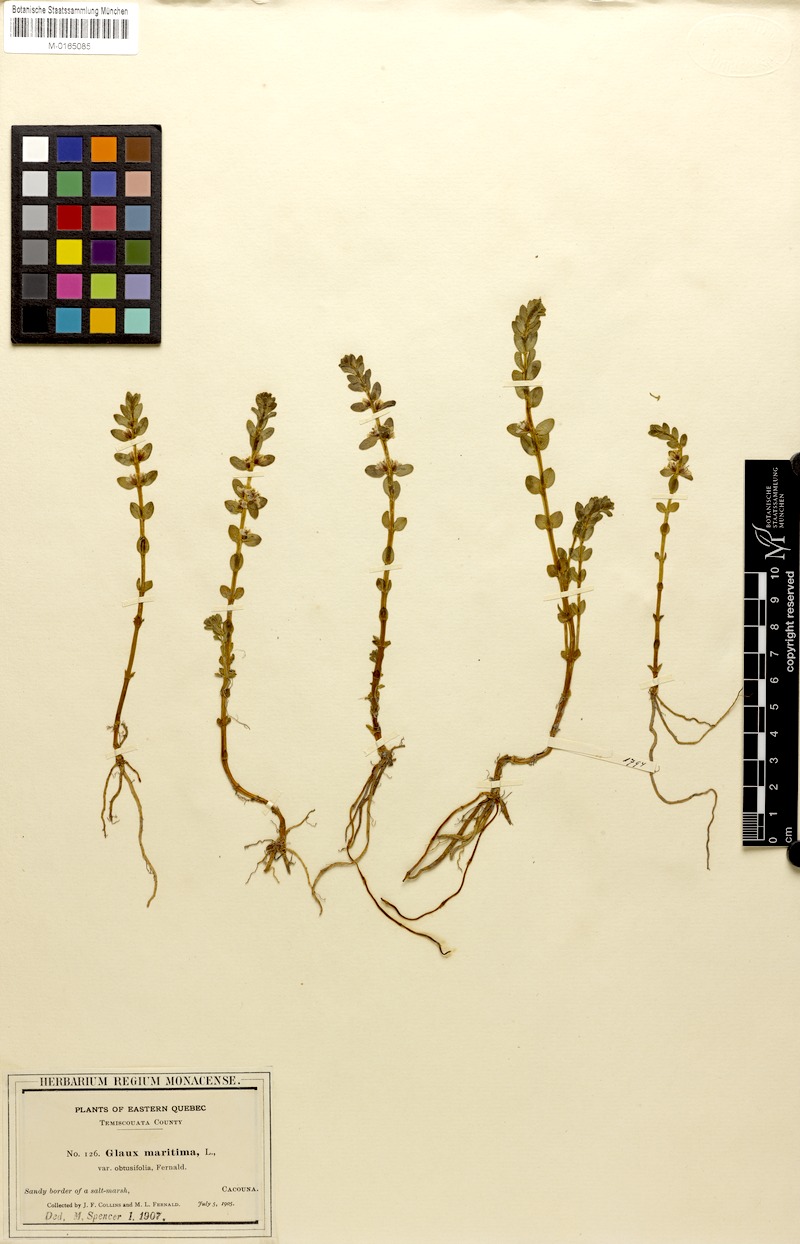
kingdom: Plantae
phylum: Tracheophyta
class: Magnoliopsida
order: Ericales
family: Primulaceae
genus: Lysimachia
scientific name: Lysimachia maritima
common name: Sea milkwort
